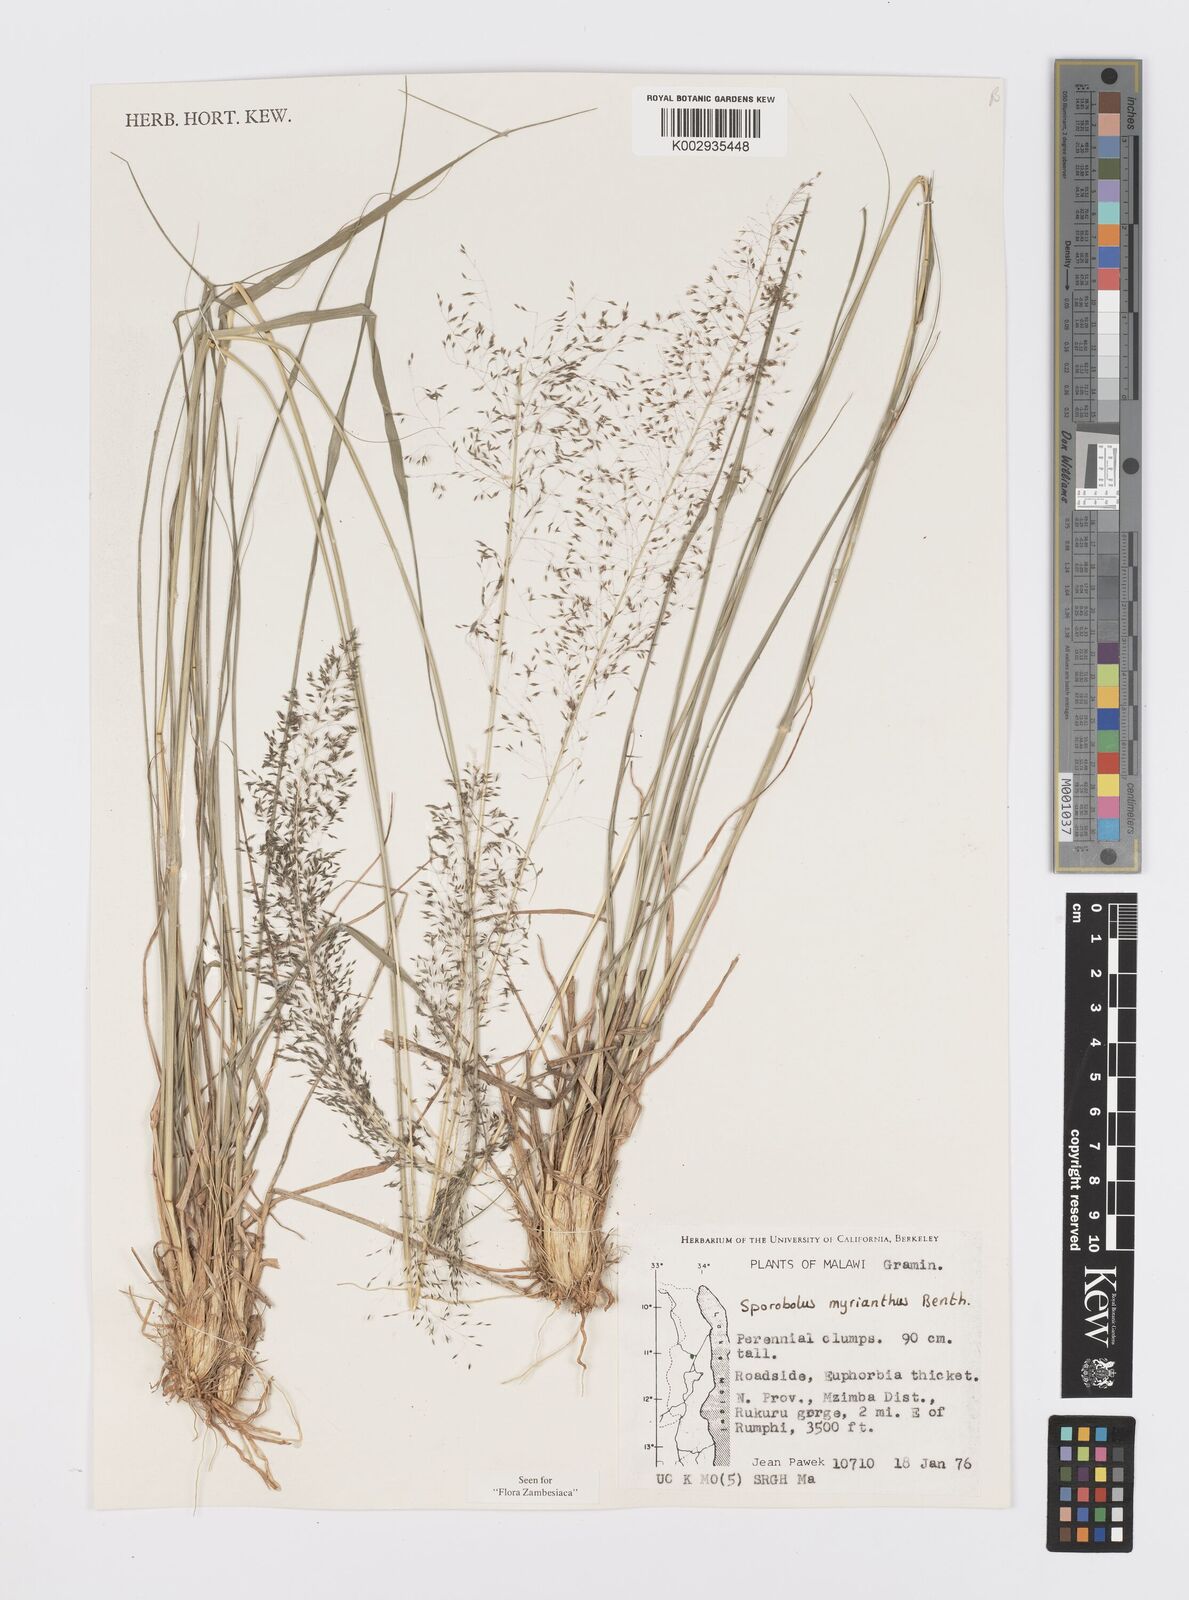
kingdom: Plantae
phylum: Tracheophyta
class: Liliopsida
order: Poales
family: Poaceae
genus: Sporobolus
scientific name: Sporobolus myrianthus
